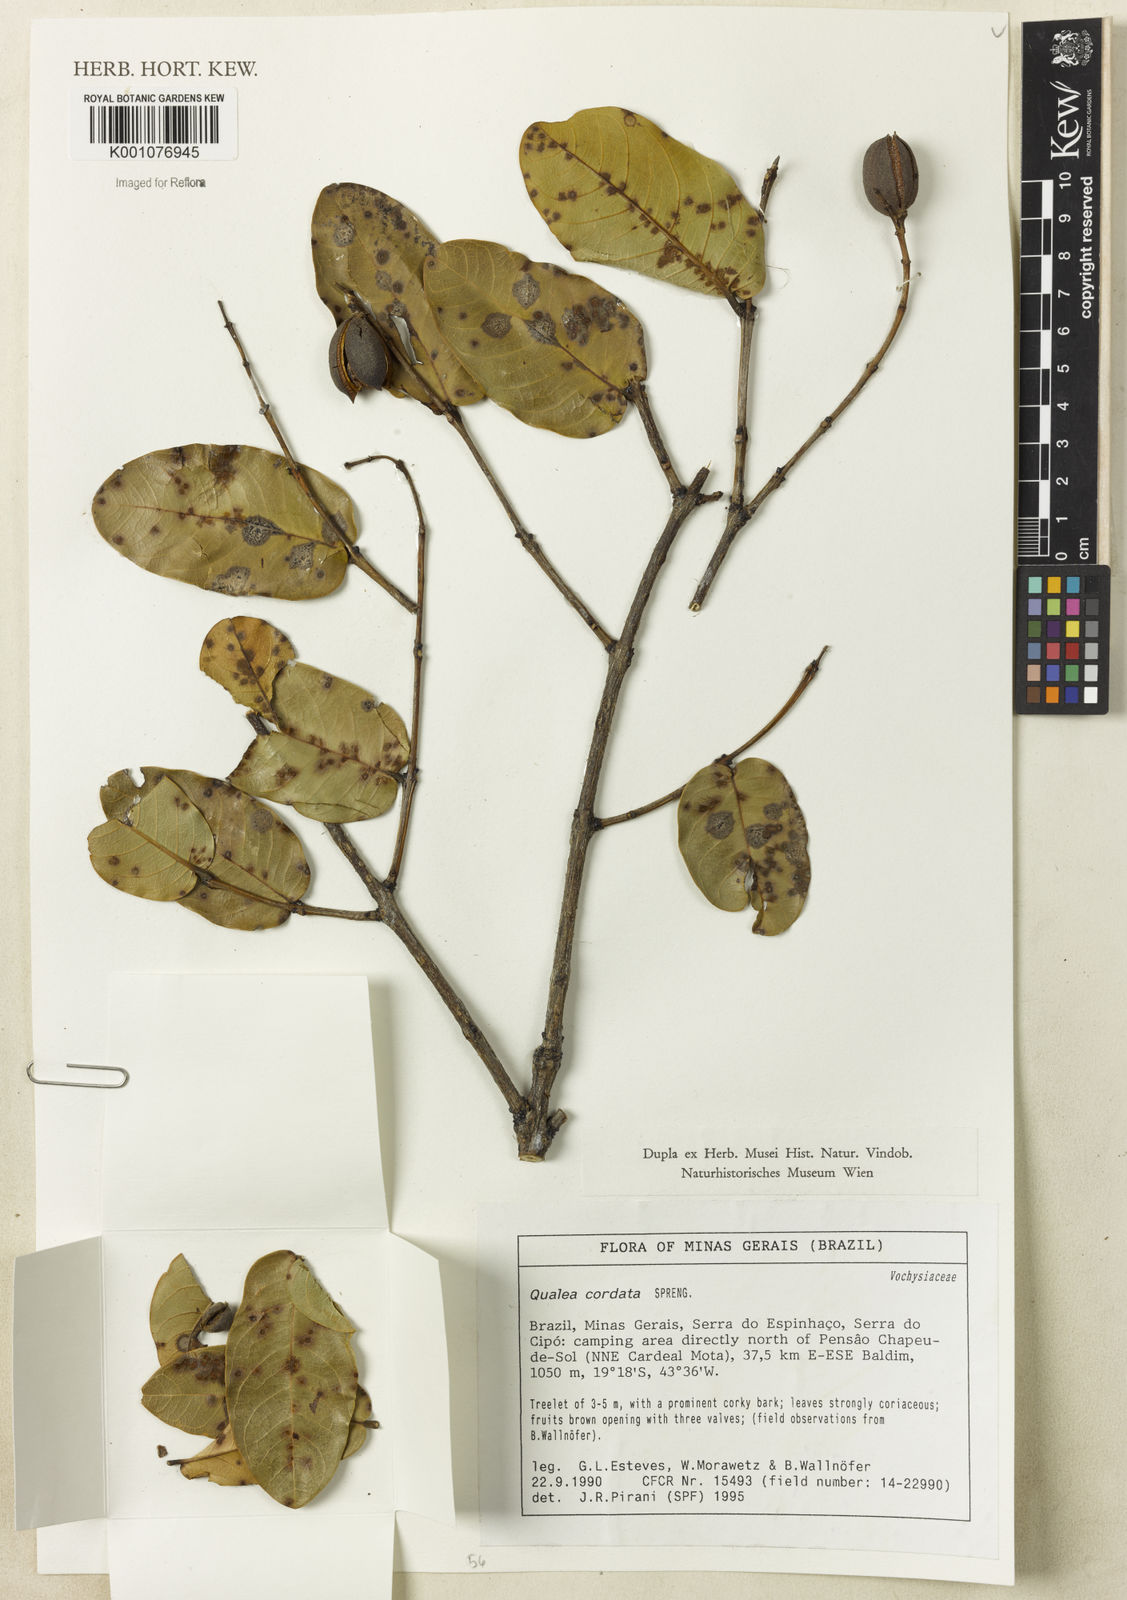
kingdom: Plantae
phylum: Tracheophyta
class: Magnoliopsida
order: Myrtales
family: Vochysiaceae
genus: Qualea
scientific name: Qualea cordata
